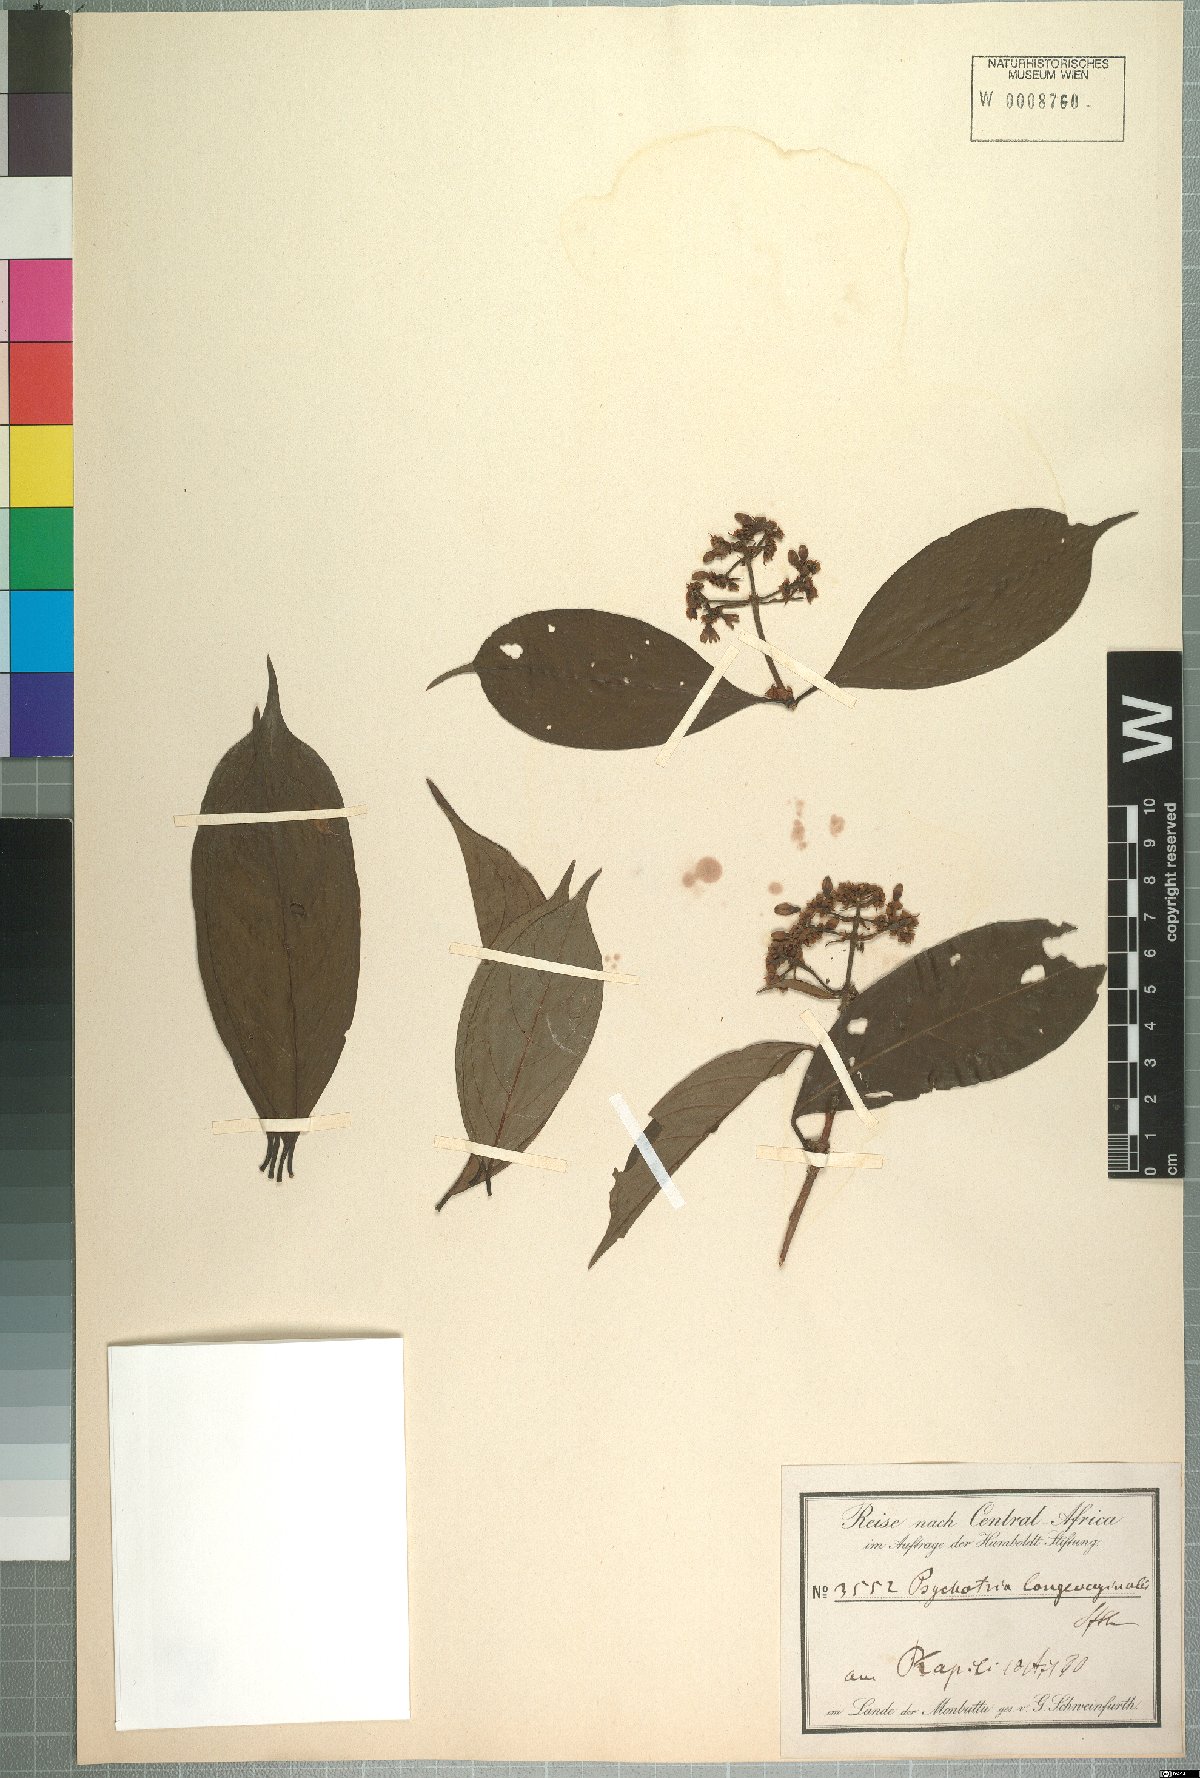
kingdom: Plantae
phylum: Tracheophyta
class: Magnoliopsida
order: Gentianales
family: Rubiaceae
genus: Gaertnera
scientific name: Gaertnera longivaginalis
